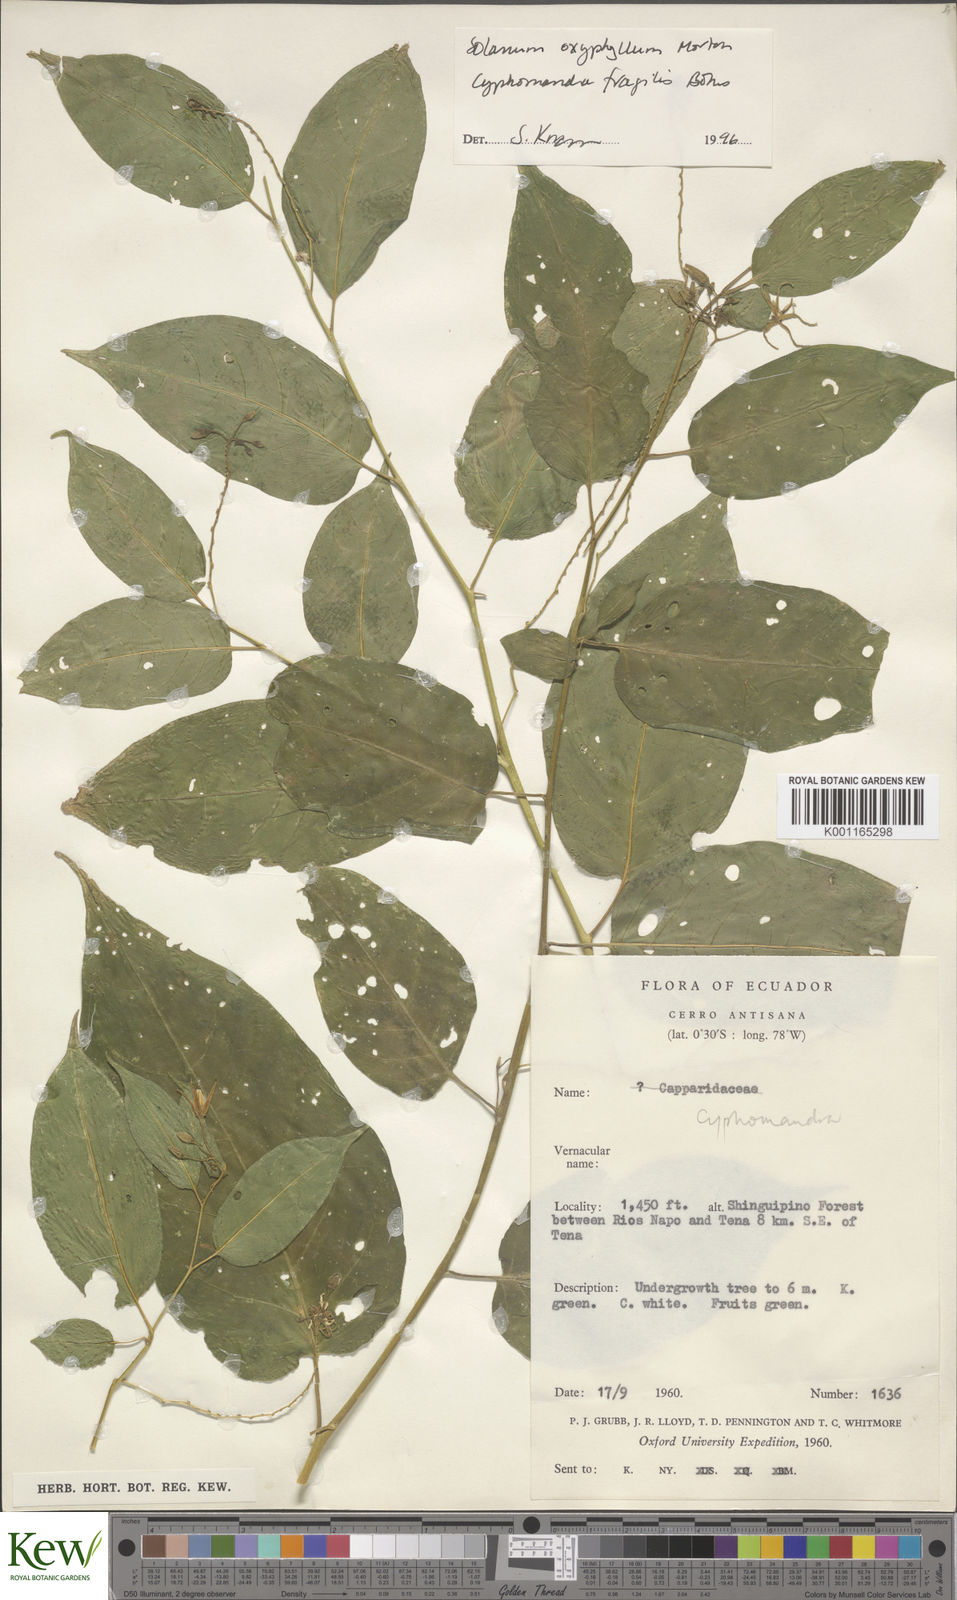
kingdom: Plantae
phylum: Tracheophyta
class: Magnoliopsida
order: Solanales
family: Solanaceae
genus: Solanum
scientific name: Solanum oxyphyllum
